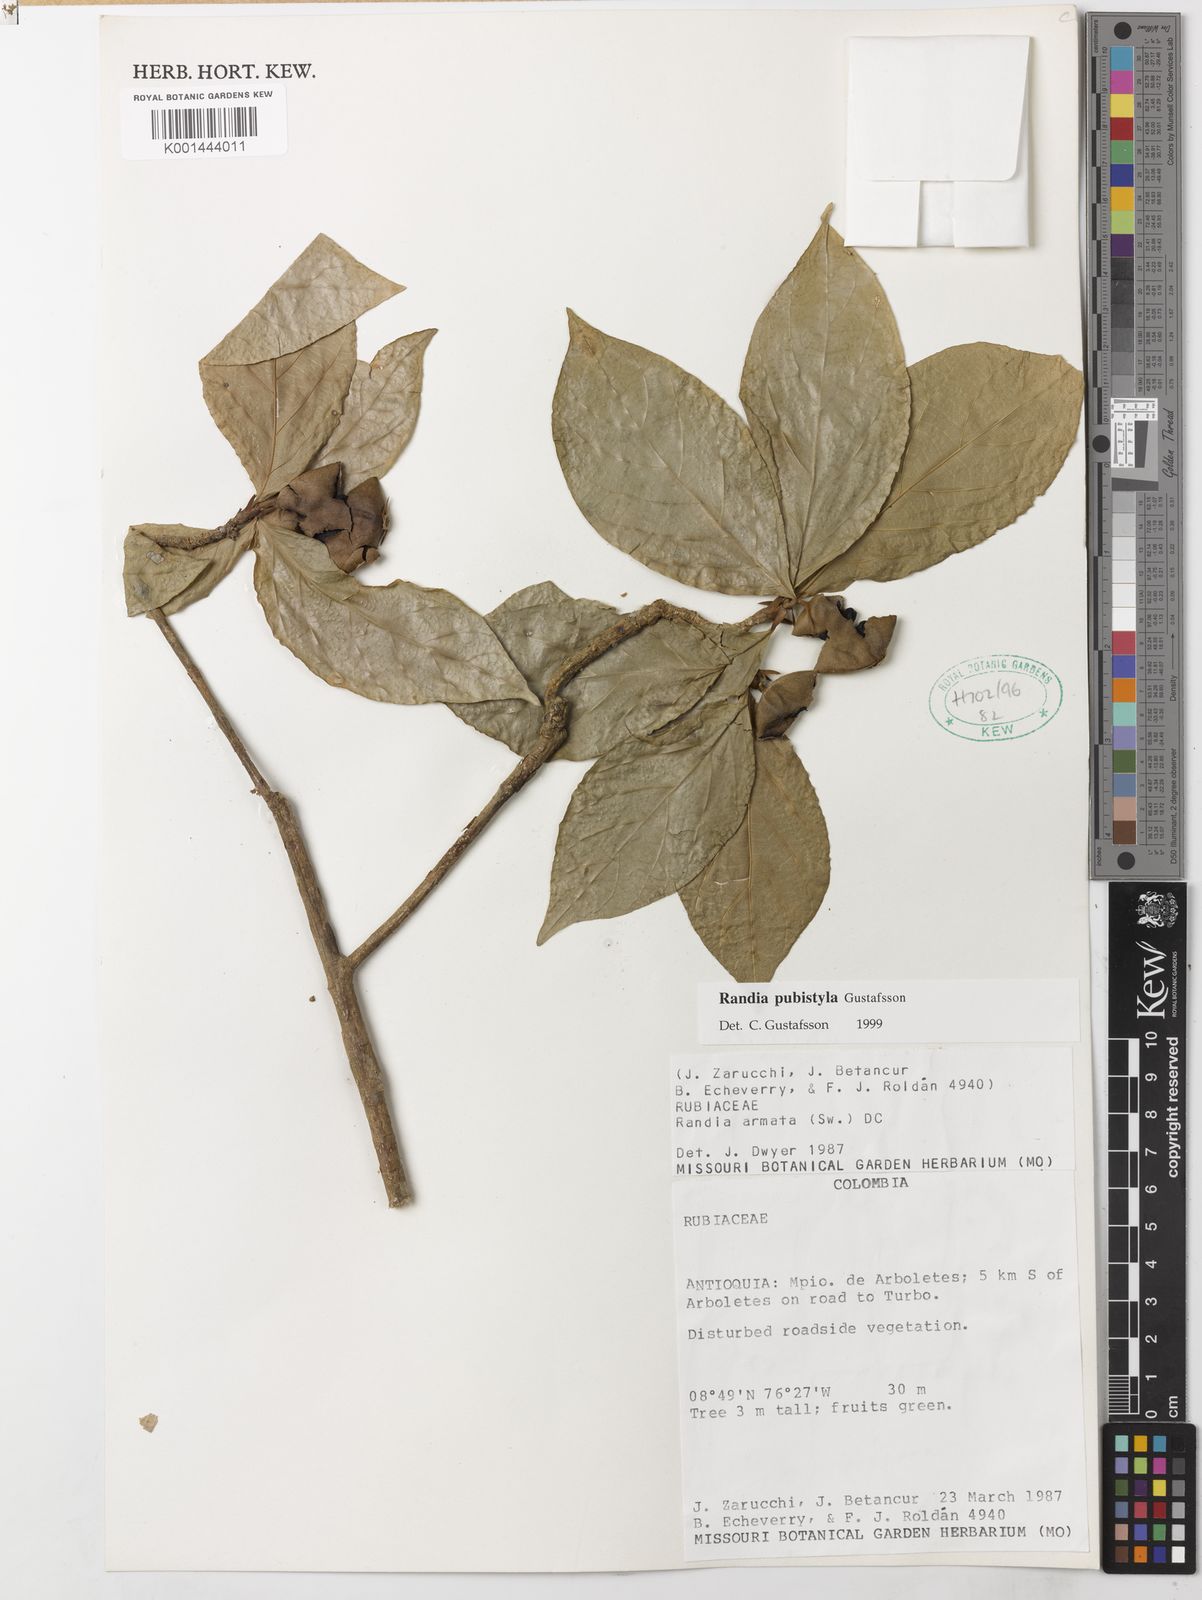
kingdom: Plantae
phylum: Tracheophyta
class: Magnoliopsida
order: Gentianales
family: Rubiaceae
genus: Randia
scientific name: Randia pubistyla
